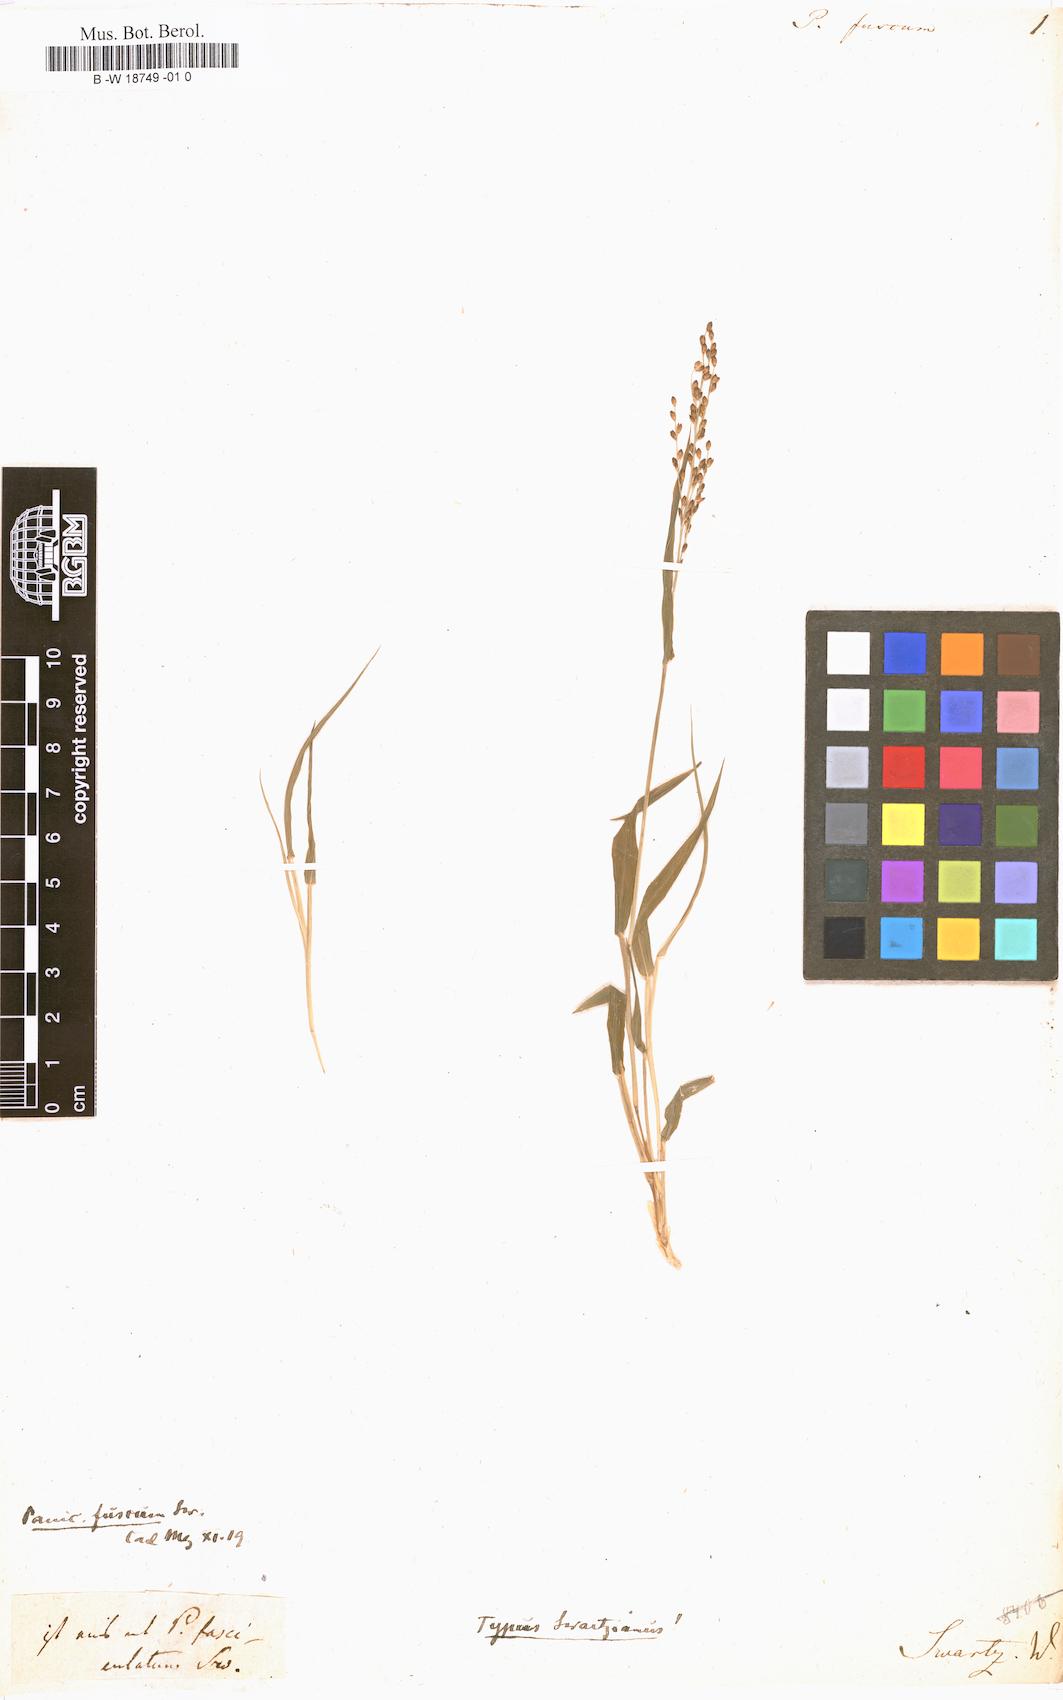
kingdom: Plantae
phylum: Tracheophyta
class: Liliopsida
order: Poales
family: Poaceae
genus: Panicum
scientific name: Panicum fuscum
